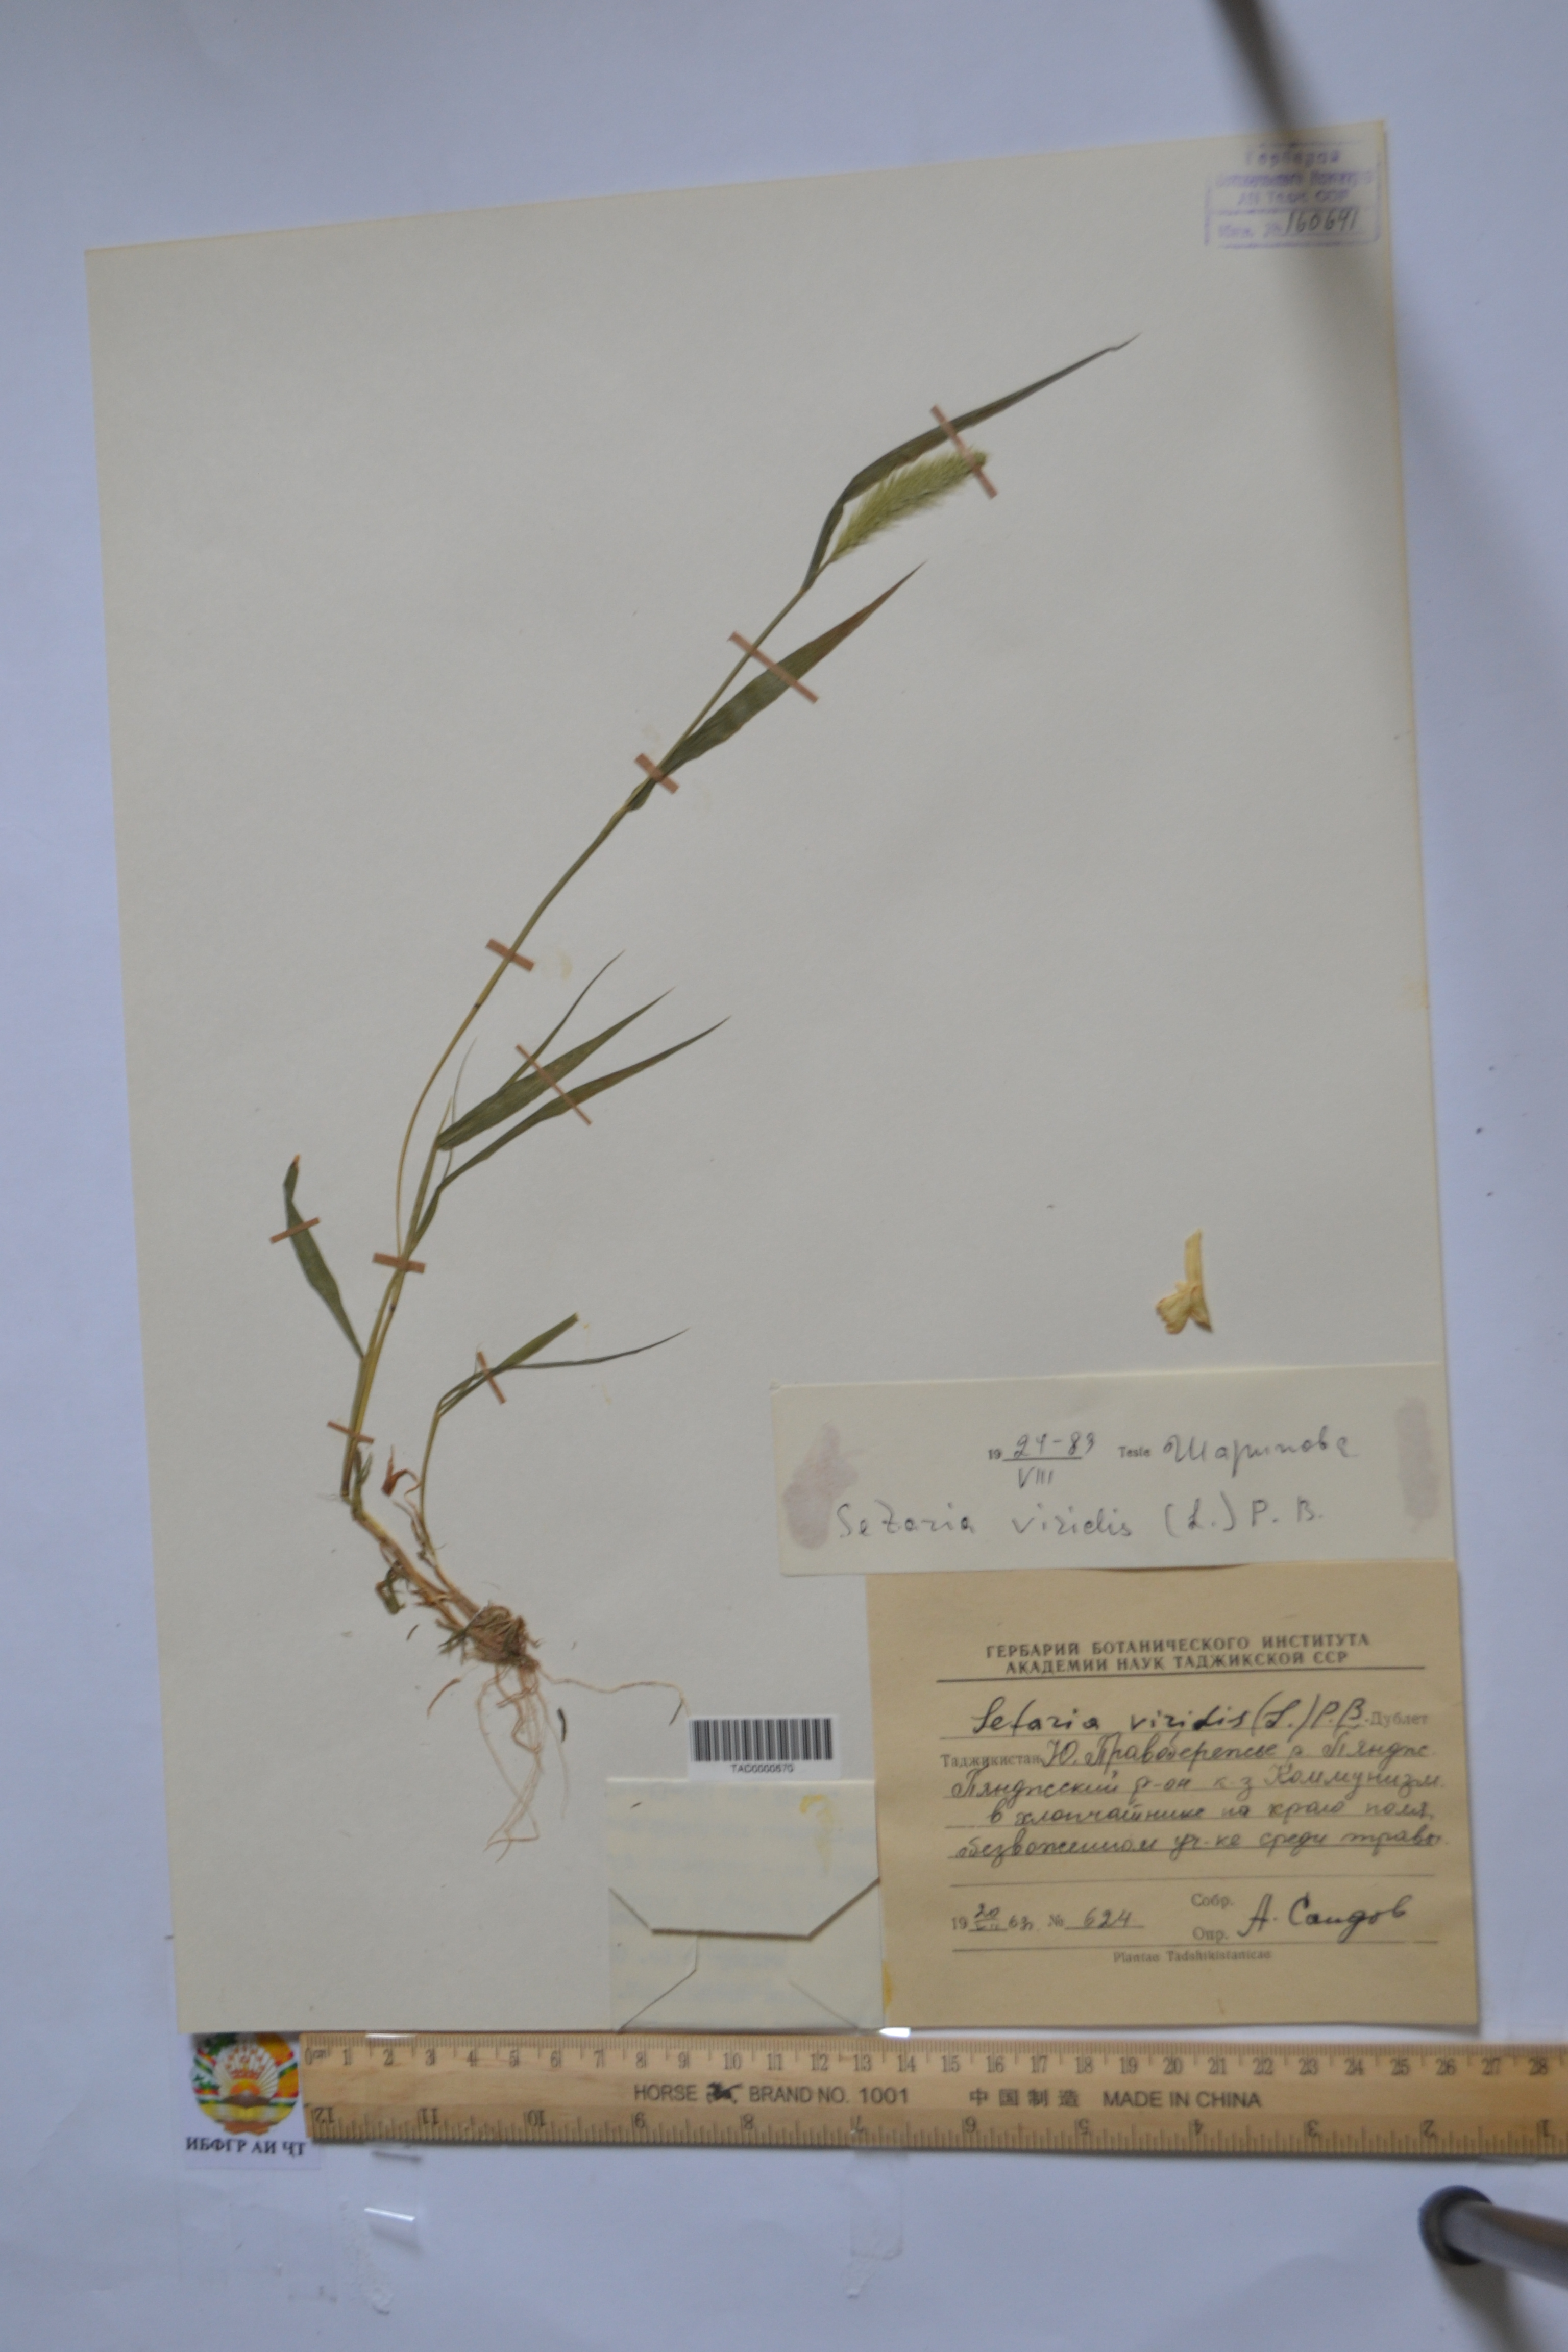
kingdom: Plantae
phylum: Tracheophyta
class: Liliopsida
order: Poales
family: Poaceae
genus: Setaria
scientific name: Setaria viridis
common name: Green bristlegrass
